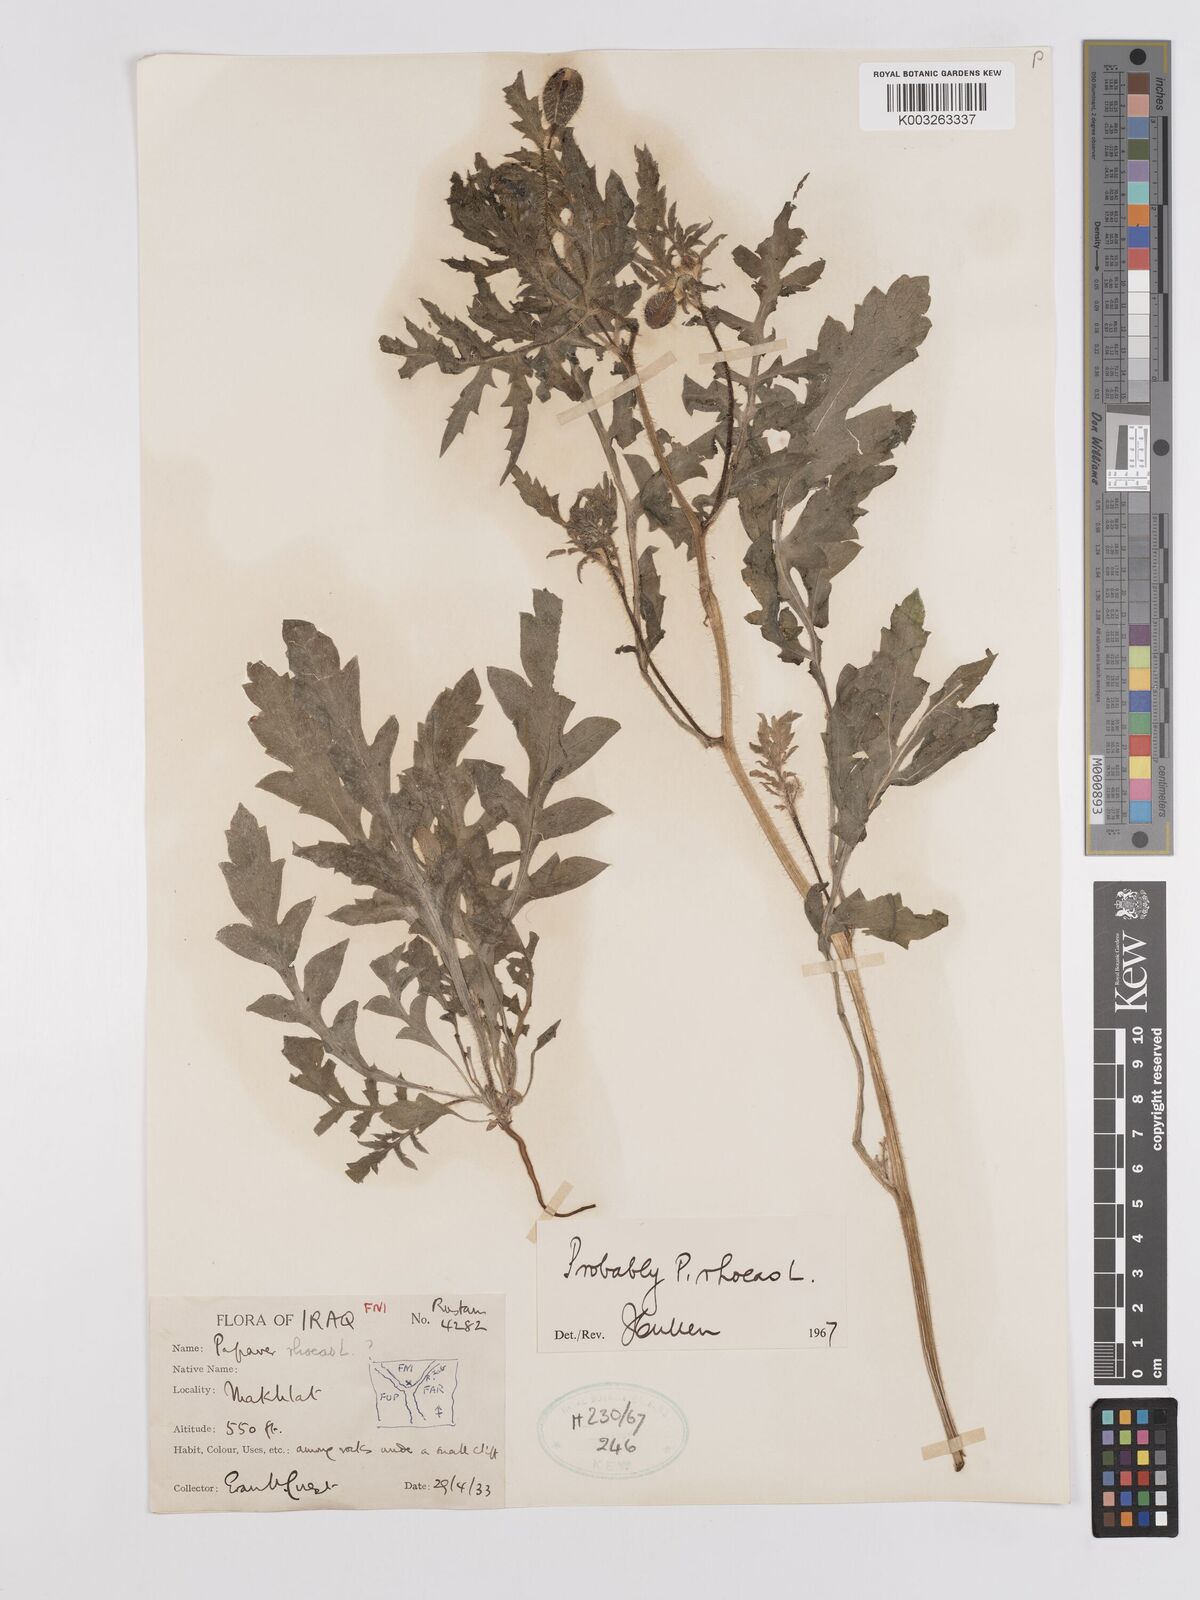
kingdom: Plantae
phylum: Tracheophyta
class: Magnoliopsida
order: Ranunculales
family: Papaveraceae
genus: Papaver
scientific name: Papaver rhoeas
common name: Corn poppy
